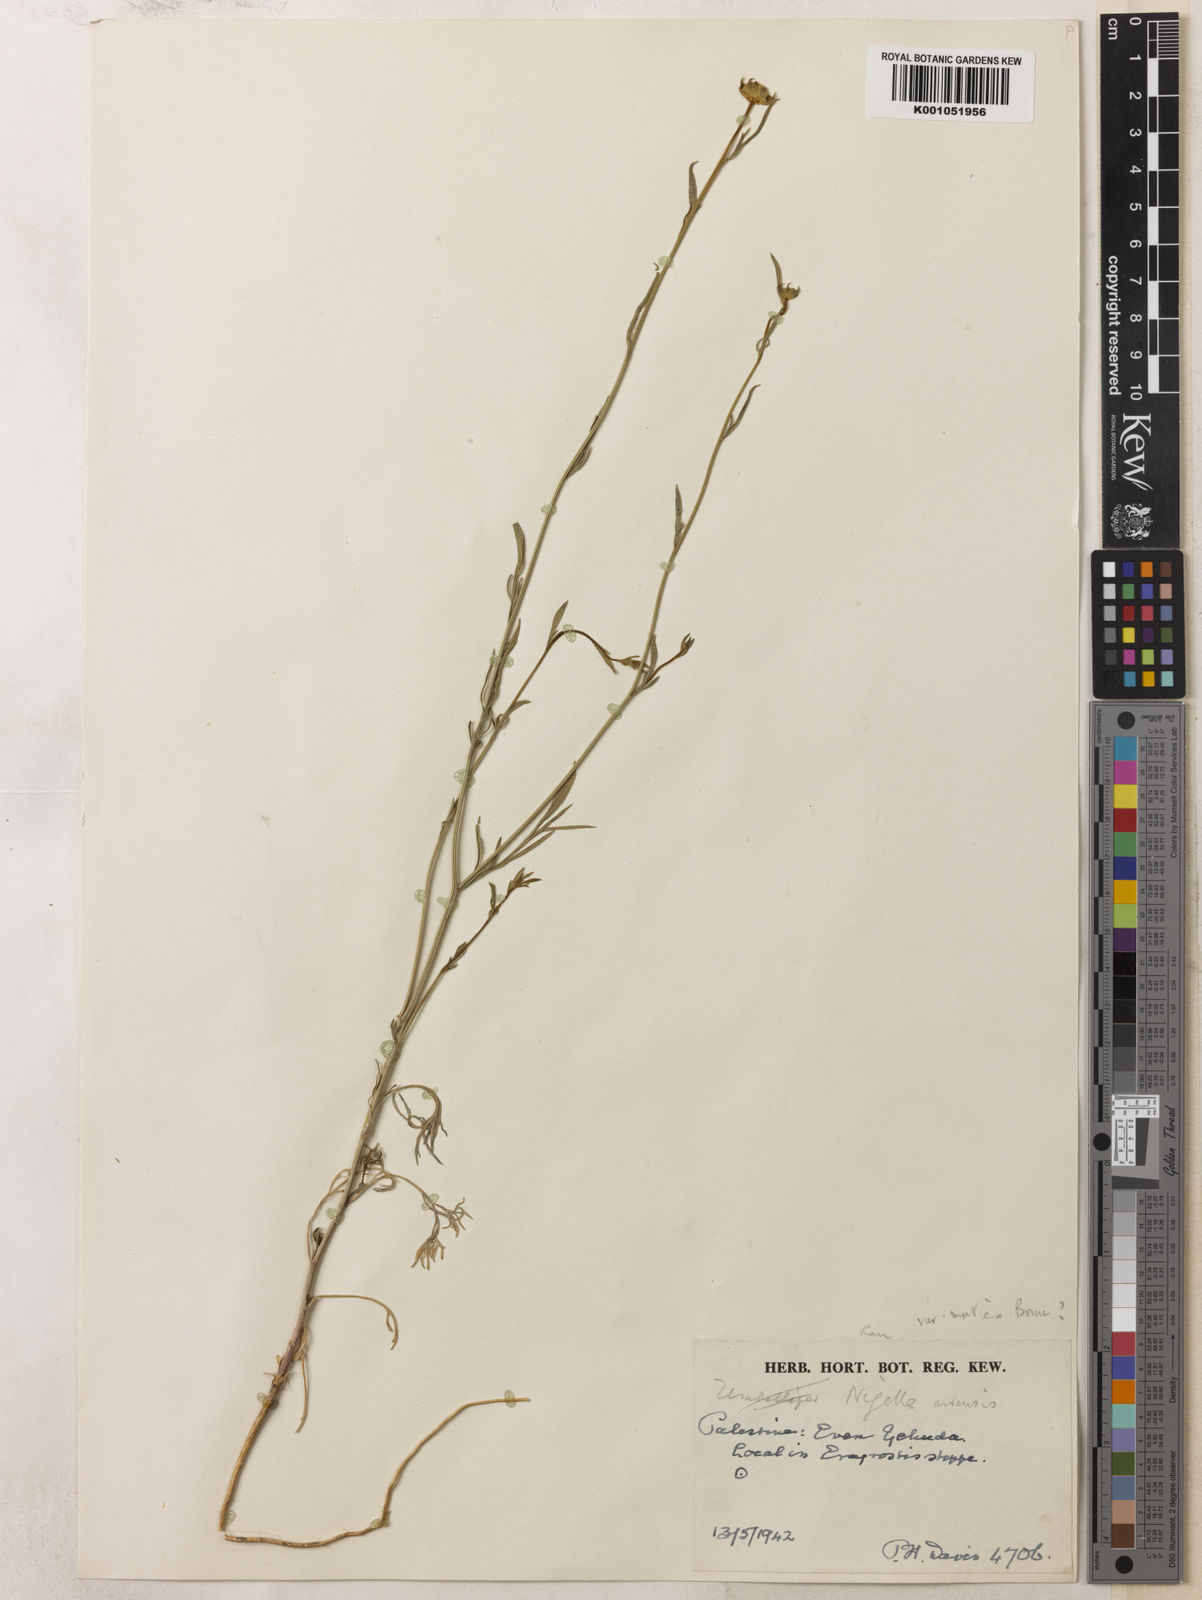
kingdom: Plantae
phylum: Tracheophyta
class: Magnoliopsida
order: Ranunculales
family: Ranunculaceae
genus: Nigella
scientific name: Nigella arvensis
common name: Wild fennel-flower
